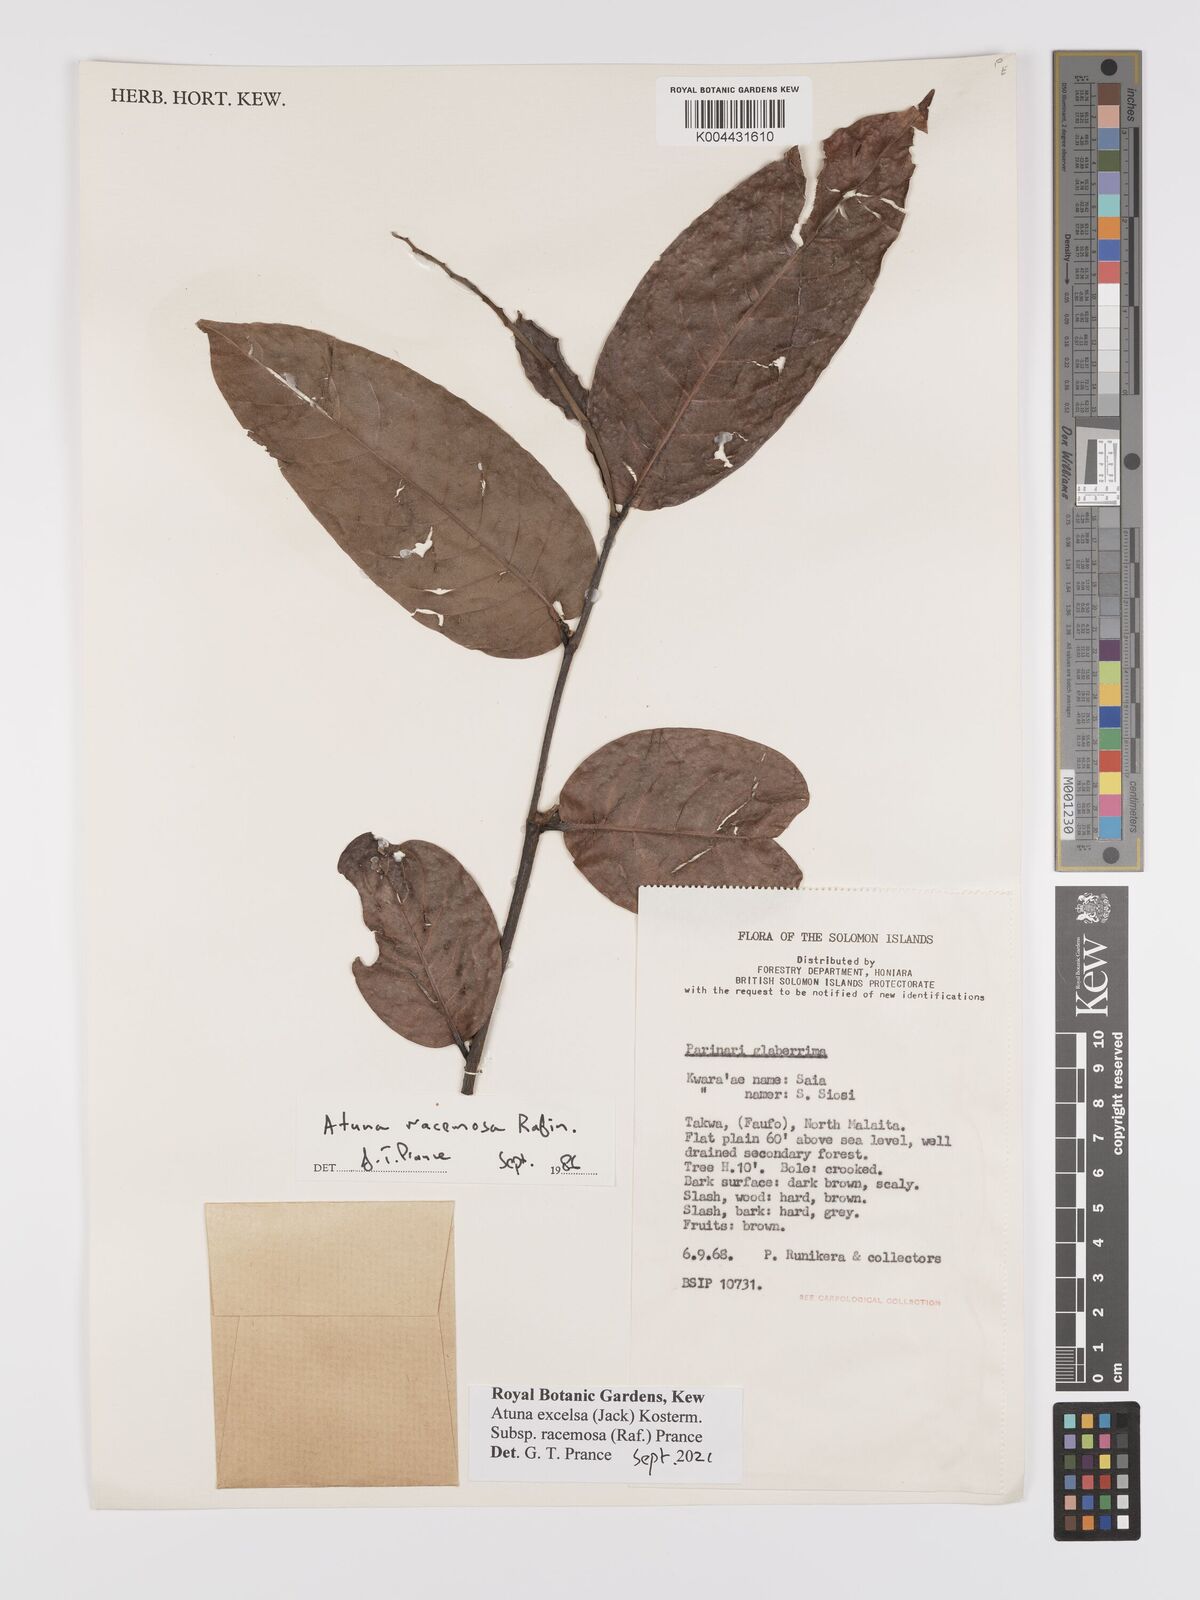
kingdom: Plantae
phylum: Tracheophyta
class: Magnoliopsida
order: Malpighiales
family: Chrysobalanaceae
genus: Atuna
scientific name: Atuna excelsa
